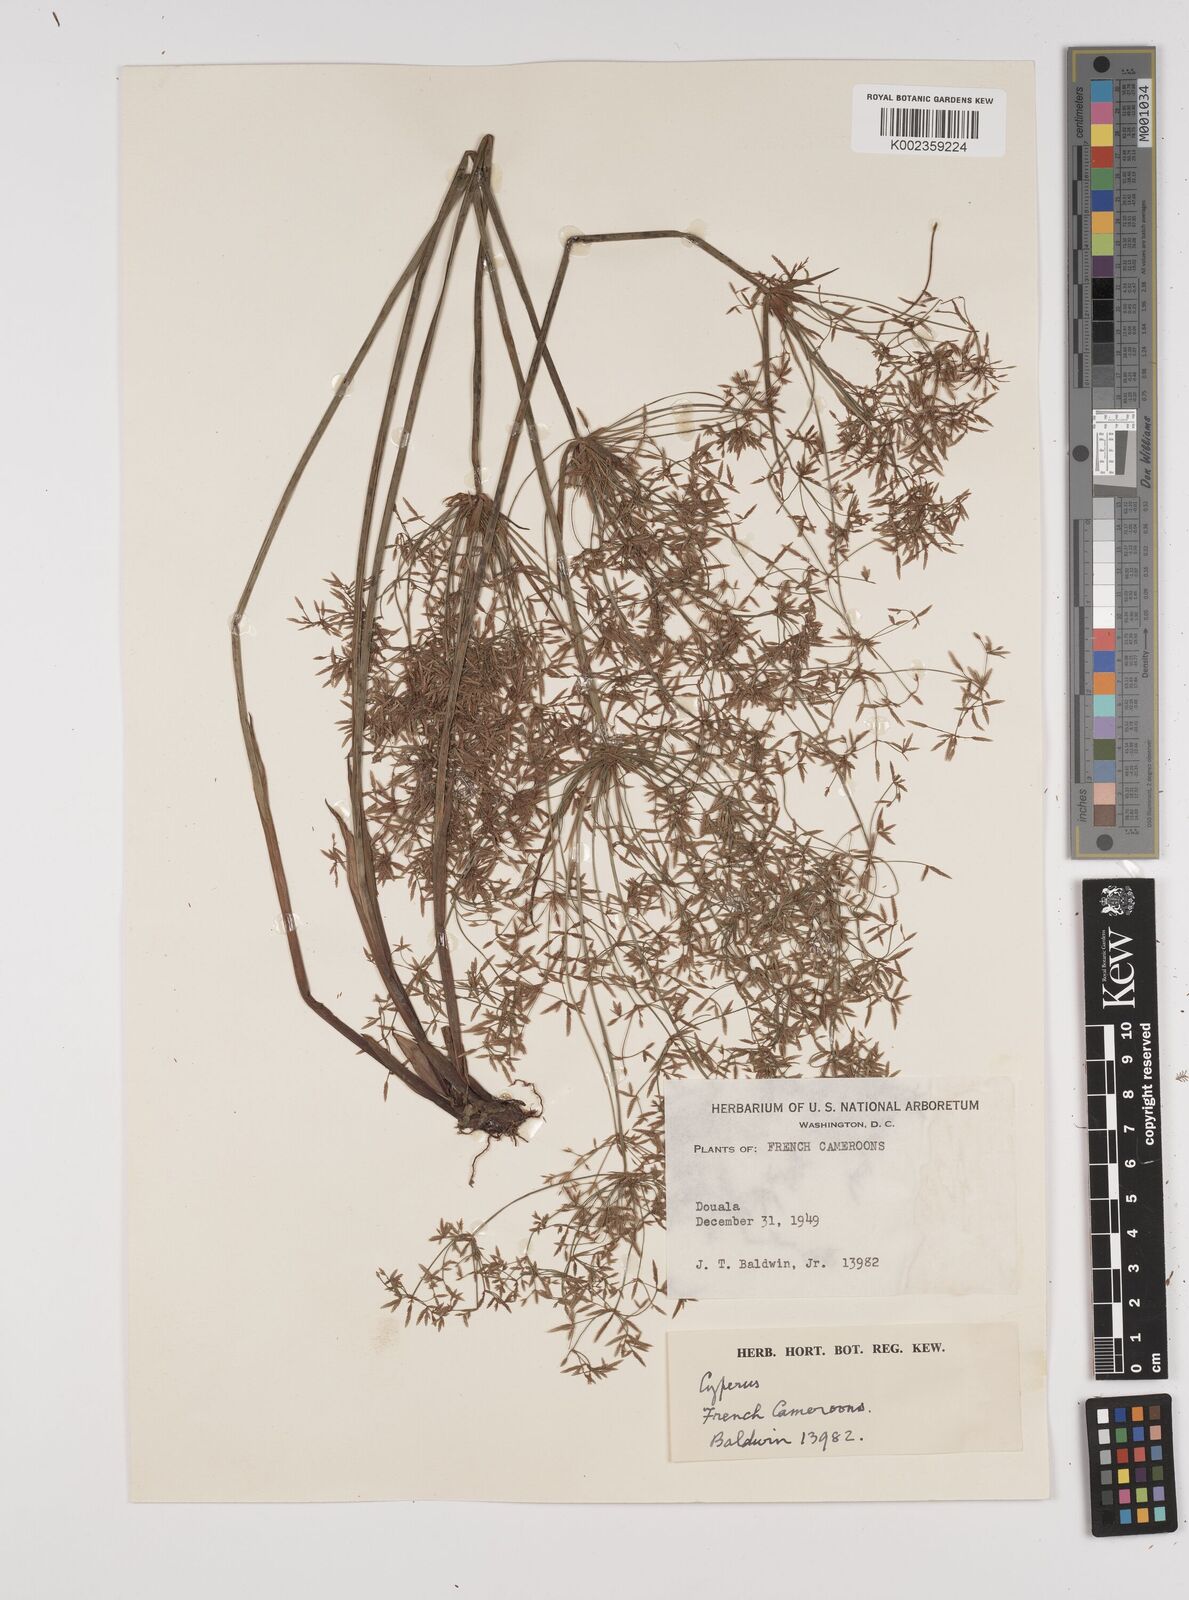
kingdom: Plantae
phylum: Tracheophyta
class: Liliopsida
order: Poales
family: Cyperaceae
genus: Cyperus
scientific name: Cyperus haspan
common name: Haspan flatsedge
